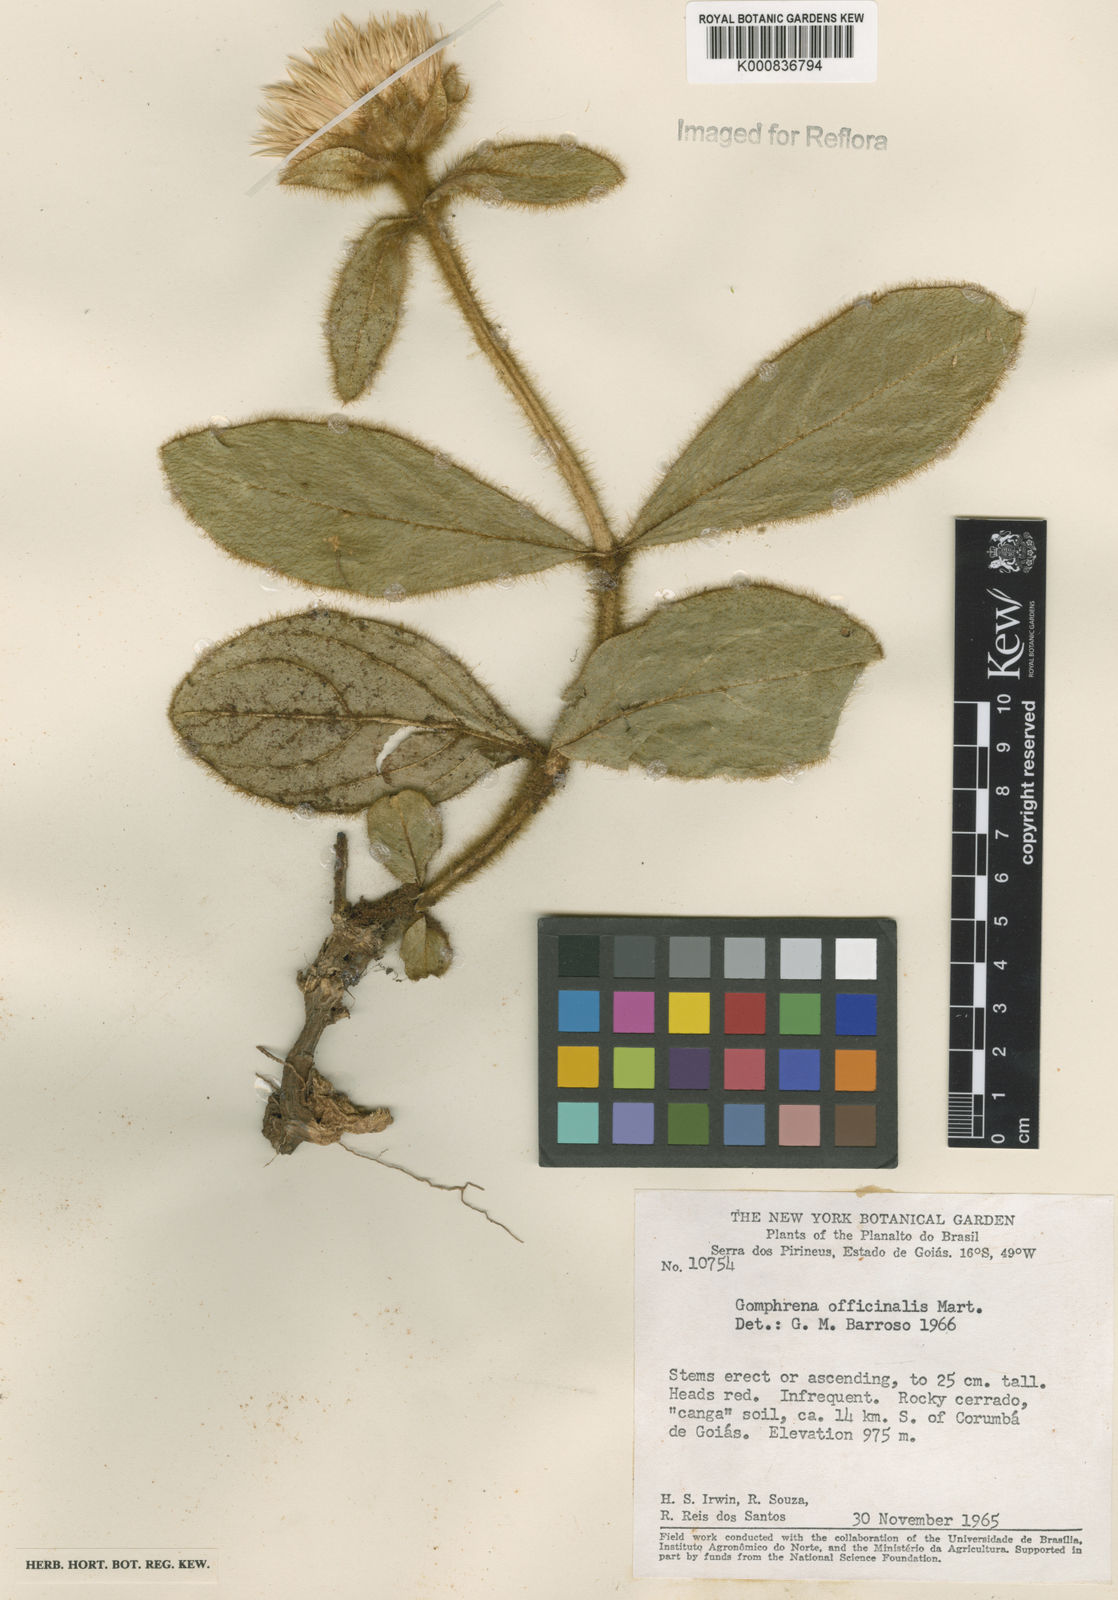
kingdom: Plantae
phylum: Tracheophyta
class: Magnoliopsida
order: Caryophyllales
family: Amaranthaceae
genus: Gomphrena
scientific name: Gomphrena arborescens
